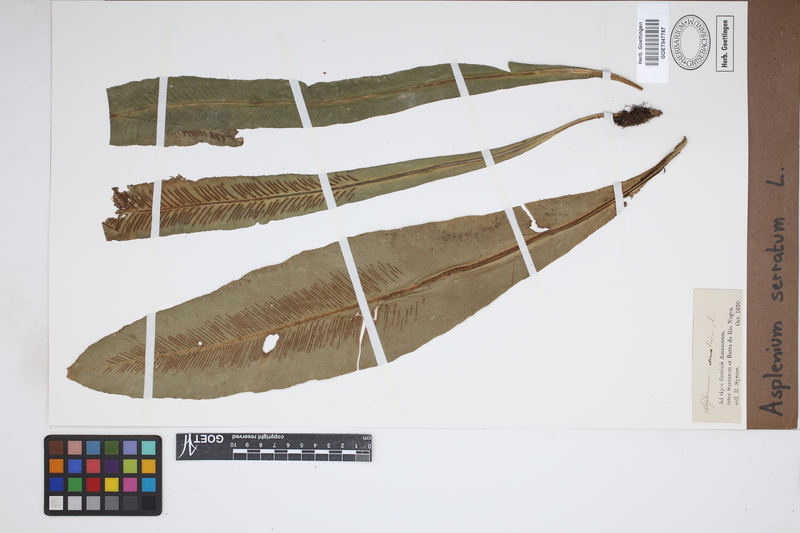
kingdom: Plantae
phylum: Tracheophyta
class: Polypodiopsida
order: Polypodiales
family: Aspleniaceae
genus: Asplenium
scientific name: Asplenium serratum
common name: Wild birdnest fern
